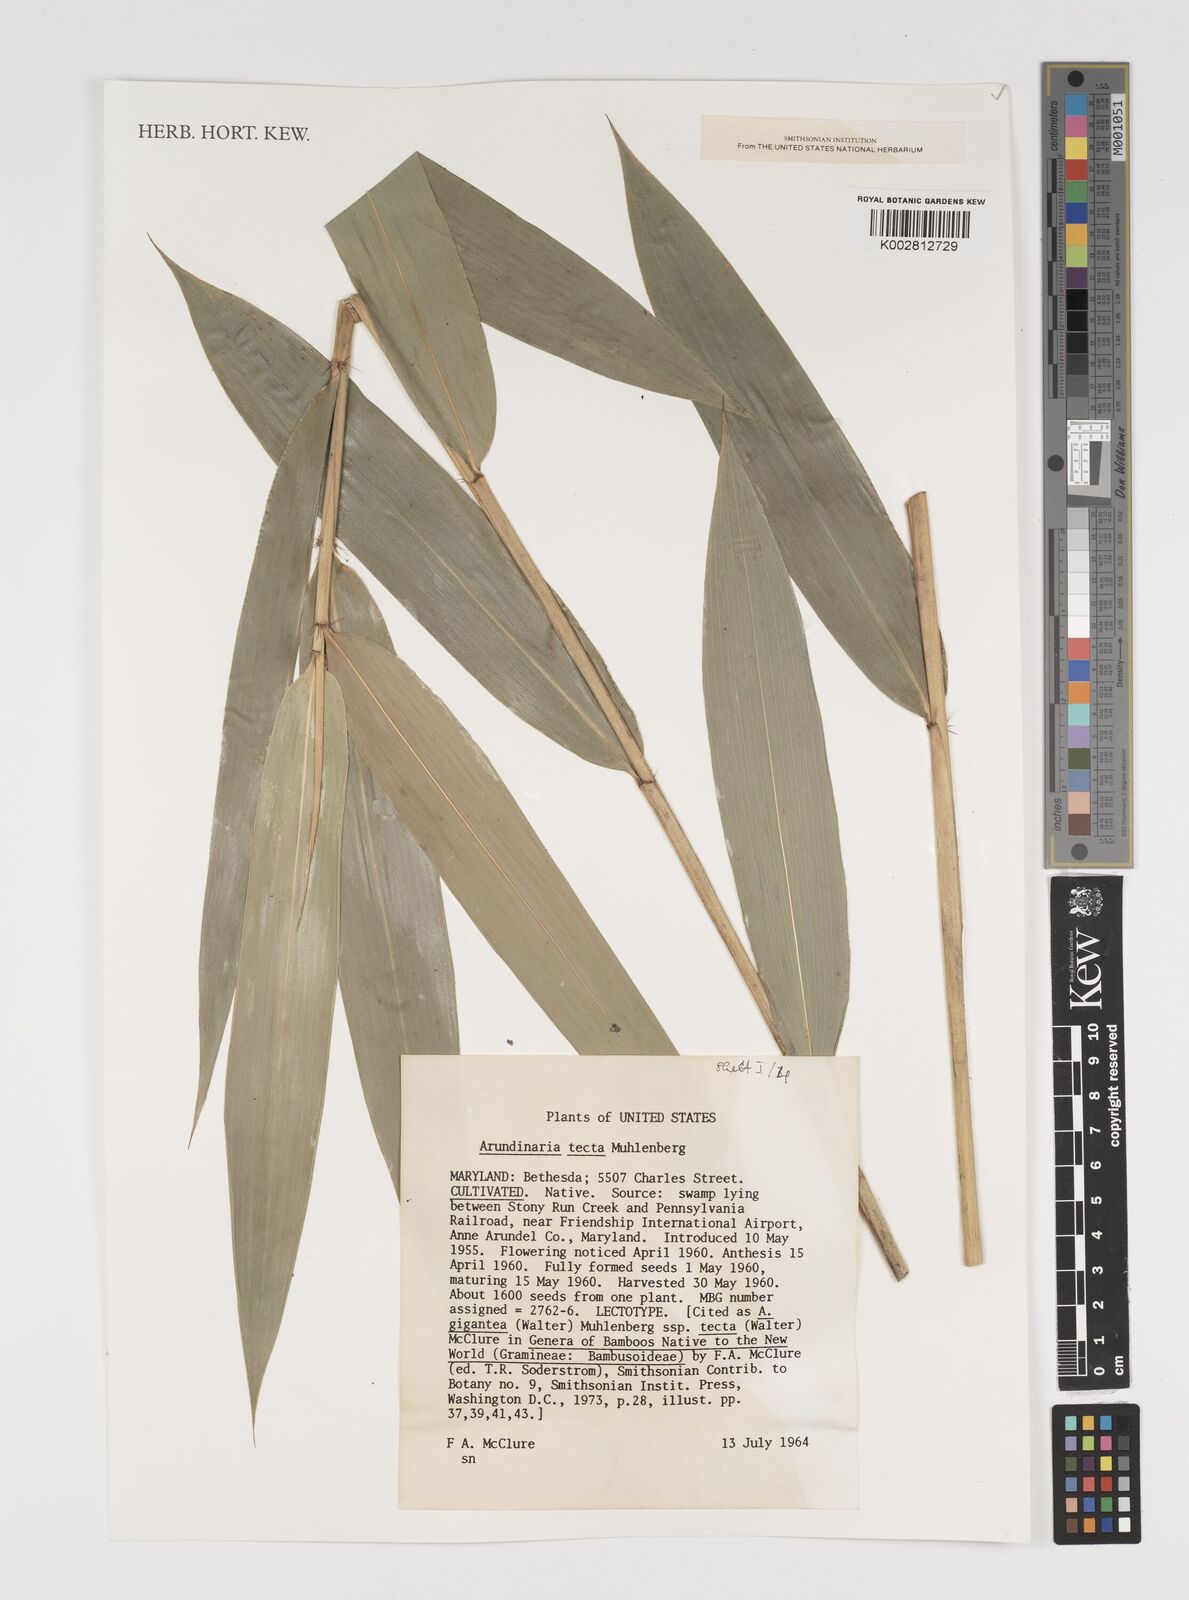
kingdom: Plantae
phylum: Tracheophyta
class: Liliopsida
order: Poales
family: Poaceae
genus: Arundinaria
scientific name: Arundinaria tecta
